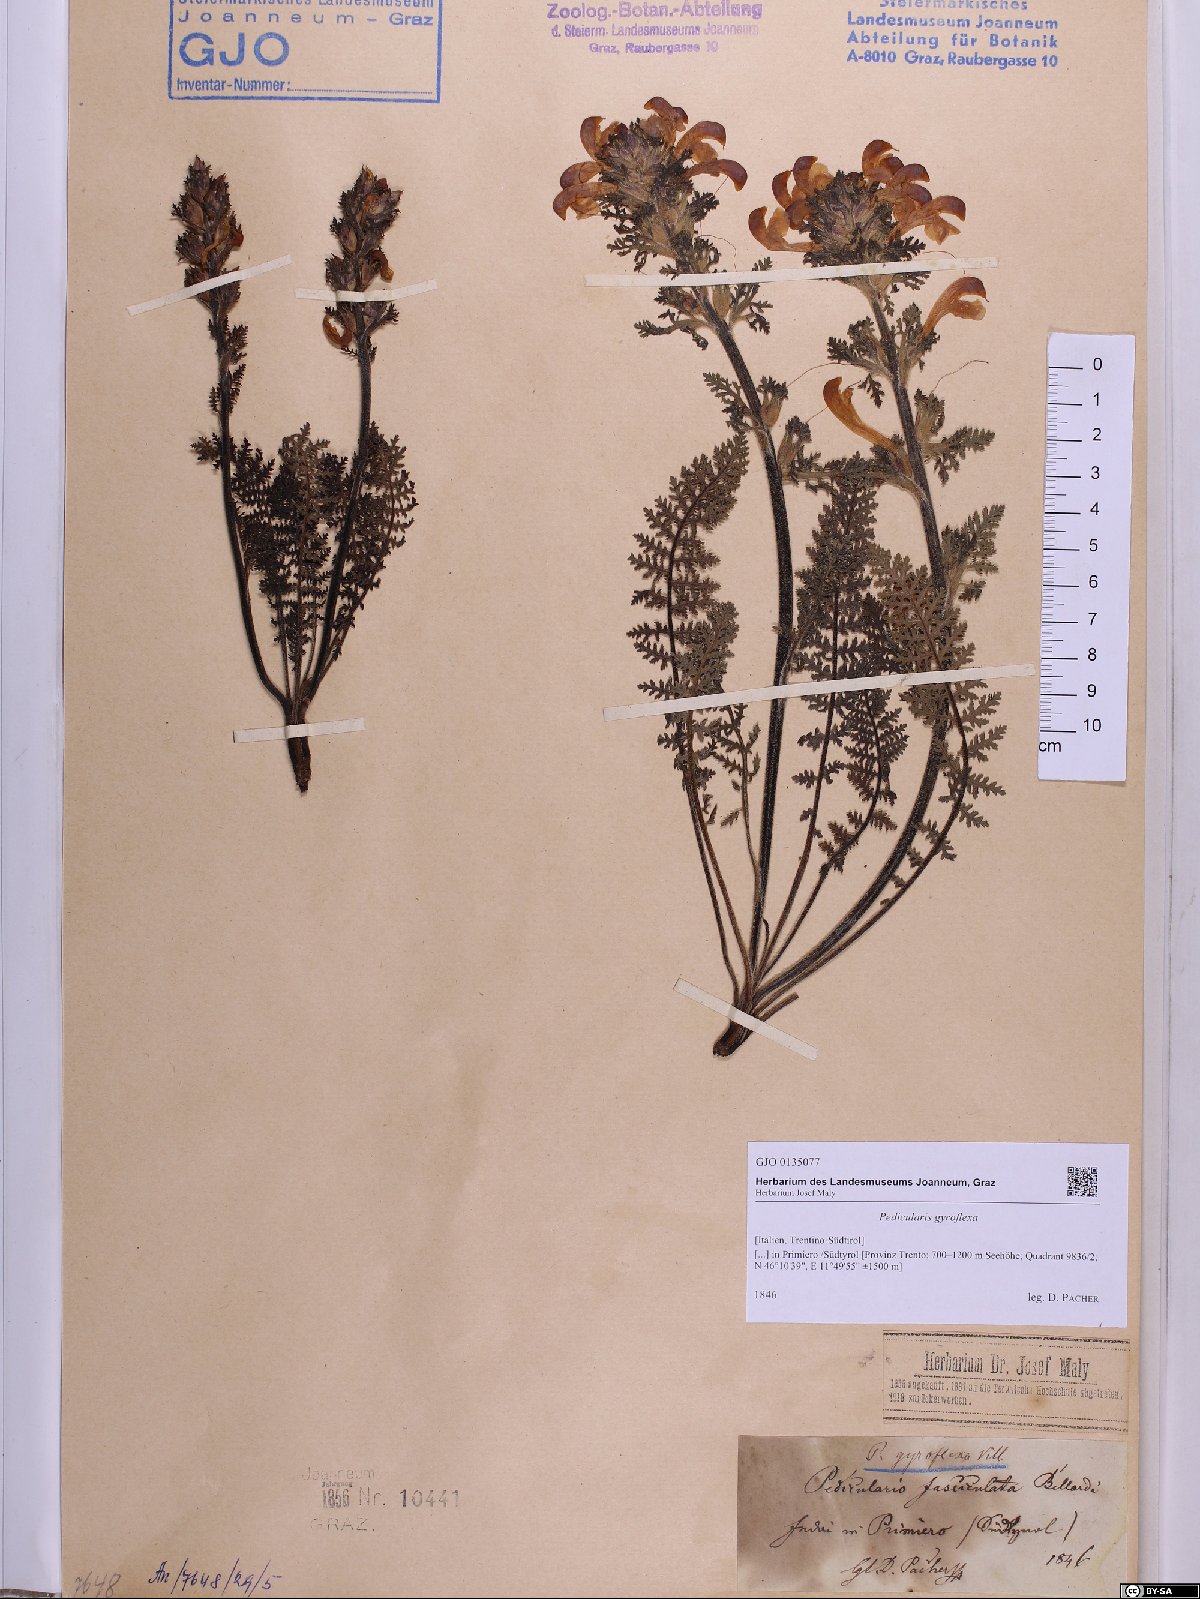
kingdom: Plantae
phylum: Tracheophyta
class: Magnoliopsida
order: Lamiales
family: Orobanchaceae
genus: Pedicularis
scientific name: Pedicularis gyroflexa
